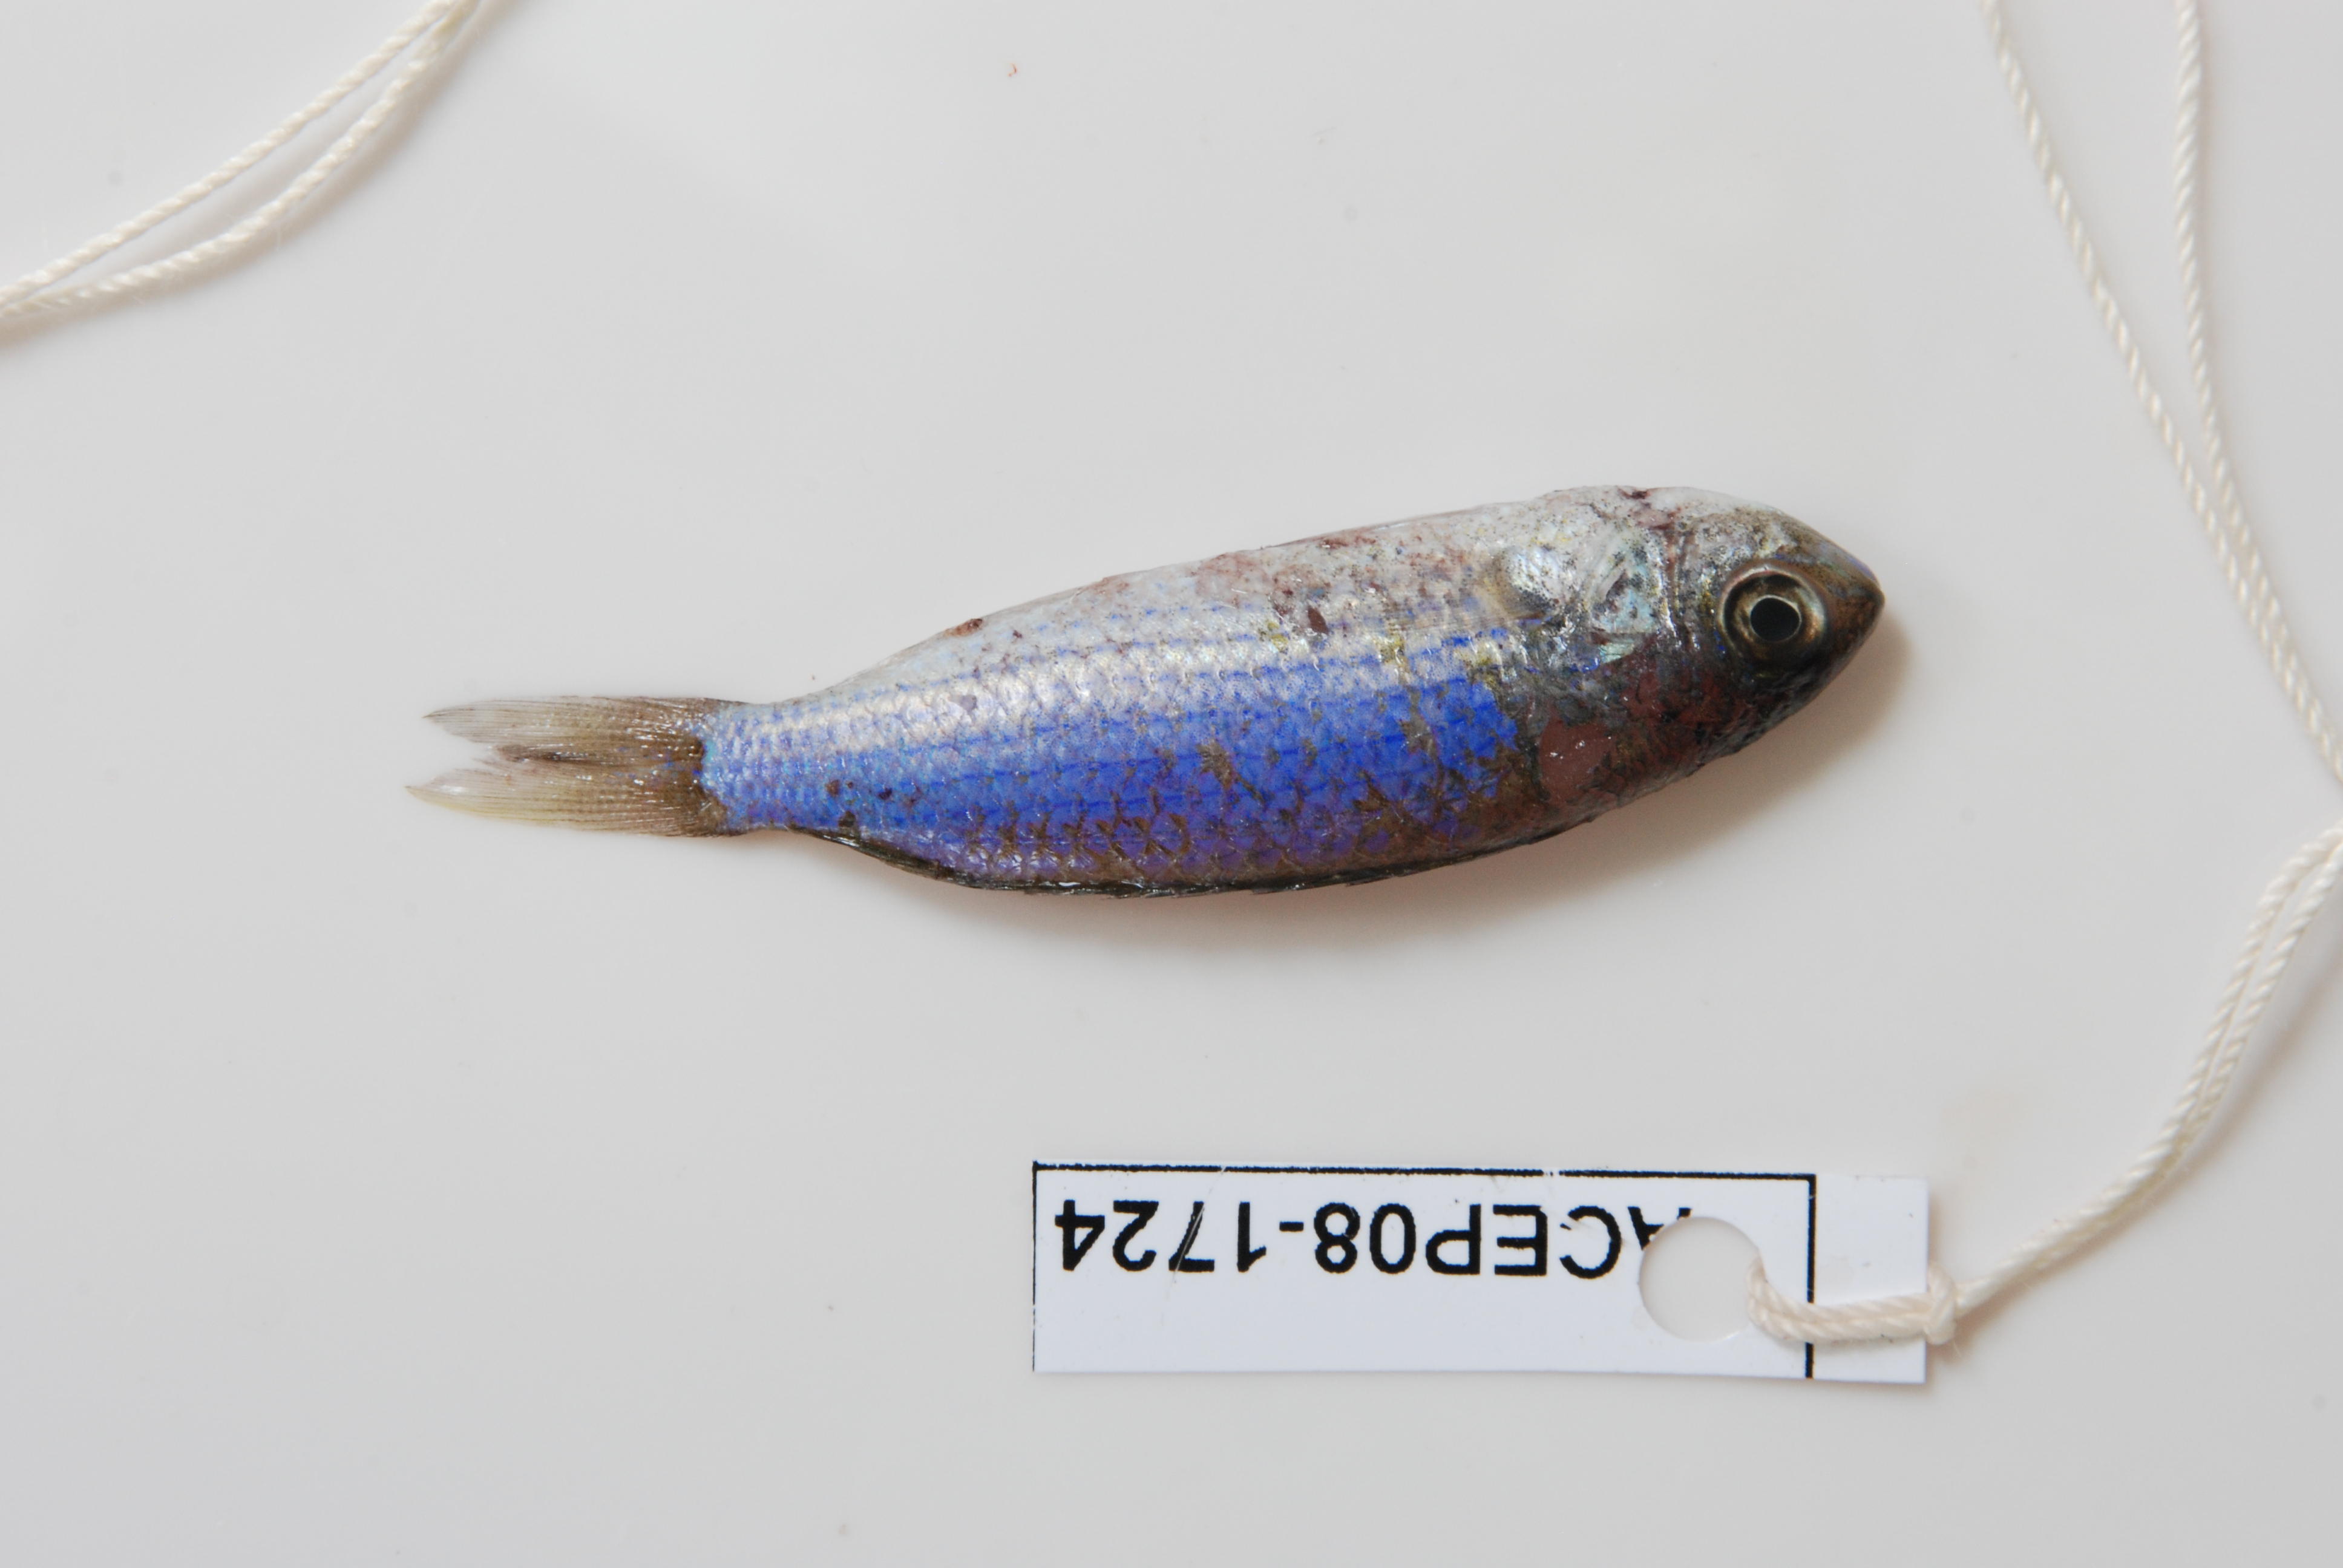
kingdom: Animalia
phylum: Chordata
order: Perciformes
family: Pomacentridae
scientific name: Pomacentridae
